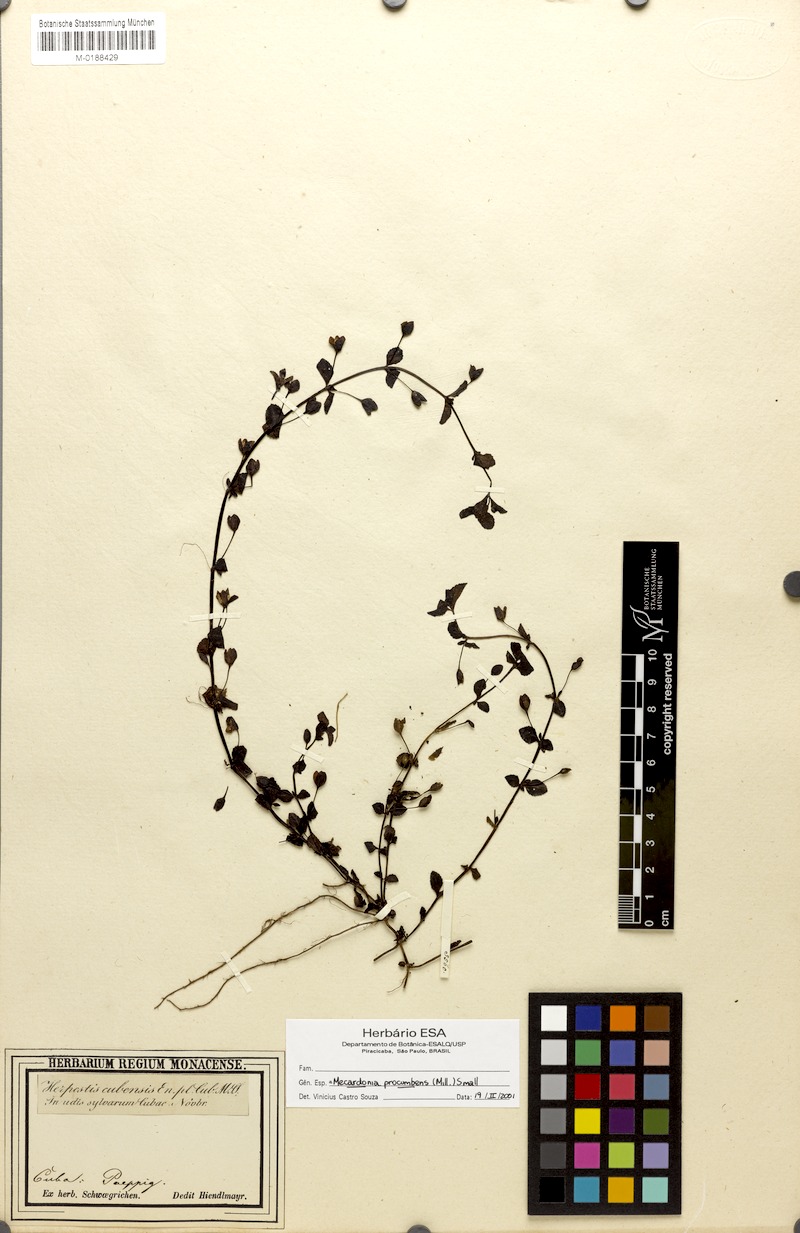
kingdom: Plantae
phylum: Tracheophyta
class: Magnoliopsida
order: Lamiales
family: Plantaginaceae
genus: Mecardonia
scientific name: Mecardonia procumbens
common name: Baby jump-up
